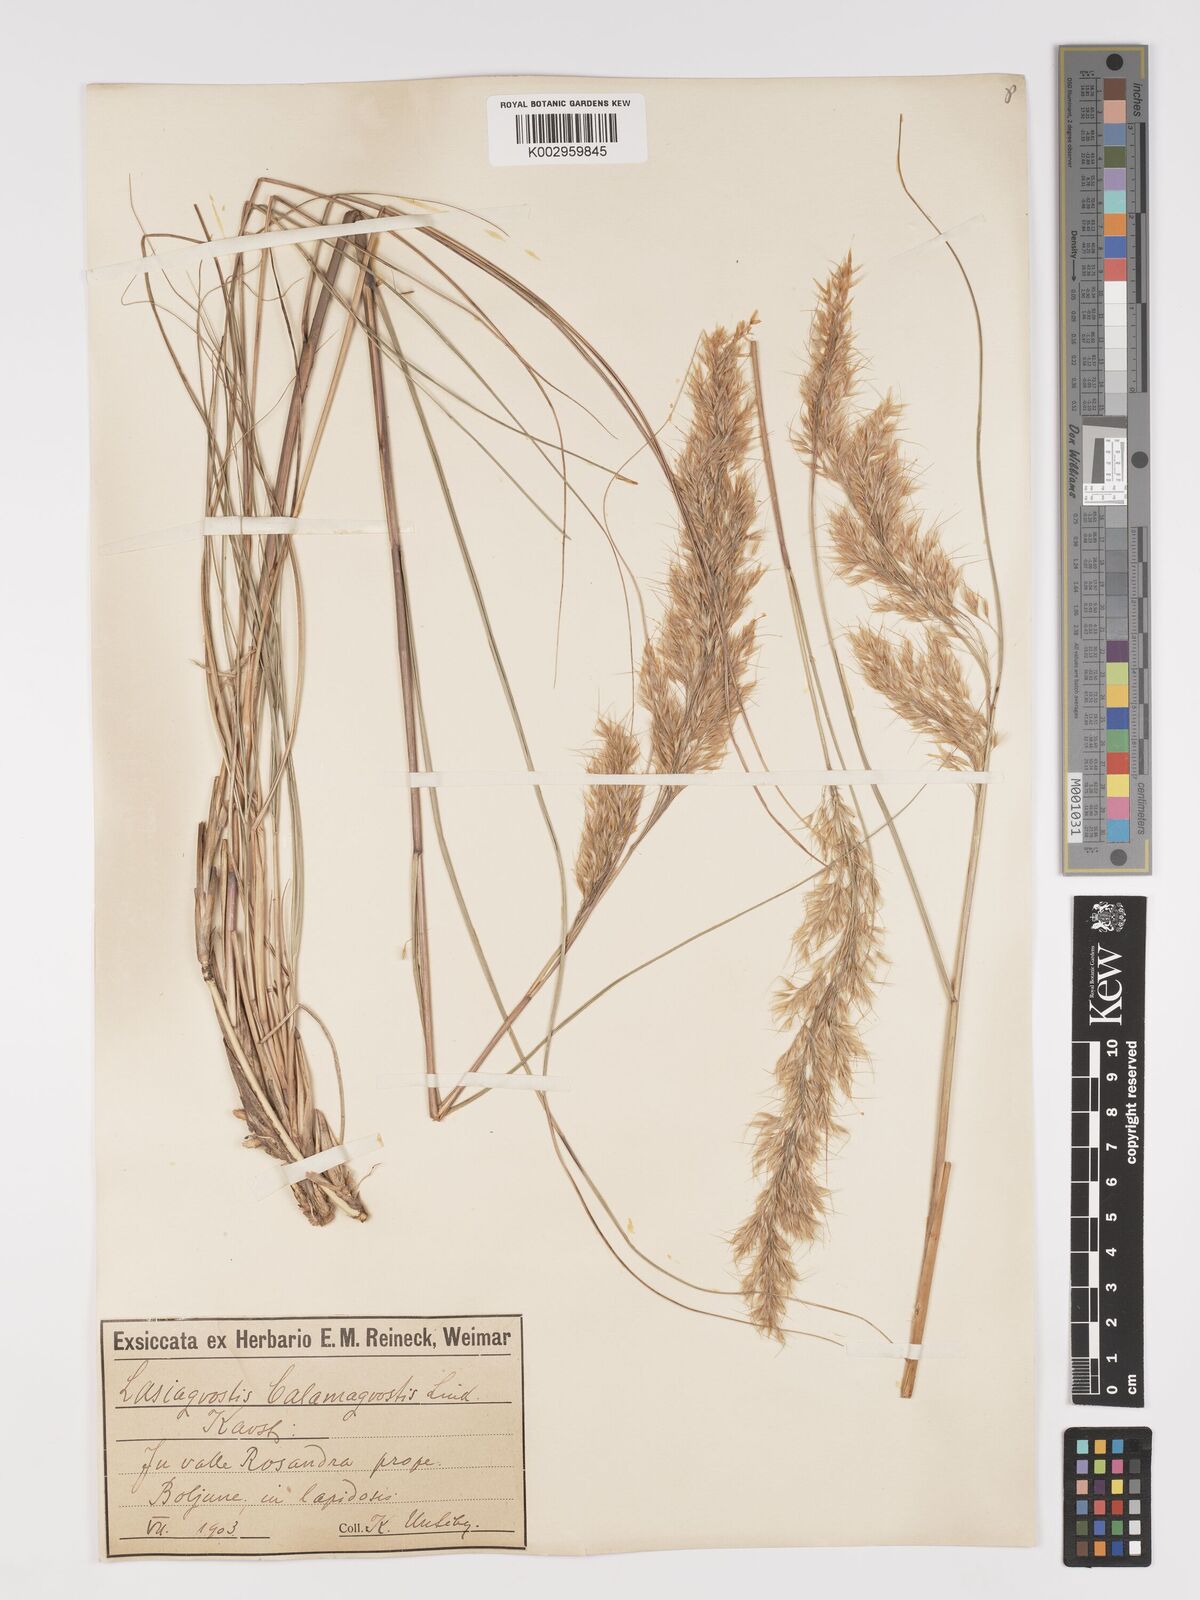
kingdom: Plantae
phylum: Tracheophyta
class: Liliopsida
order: Poales
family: Poaceae
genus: Achnatherum
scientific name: Achnatherum calamagrostis
